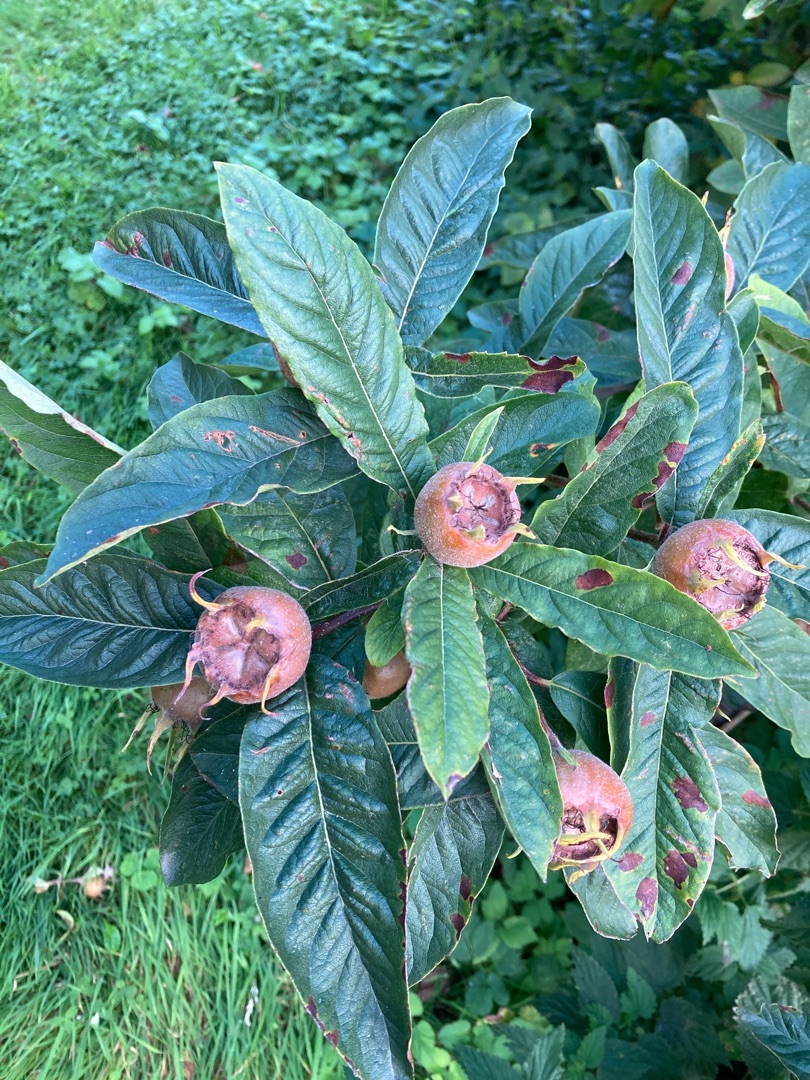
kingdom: Plantae
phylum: Tracheophyta
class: Magnoliopsida
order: Rosales
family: Rosaceae
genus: Mespilus
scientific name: Mespilus germanica
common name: Mispel
